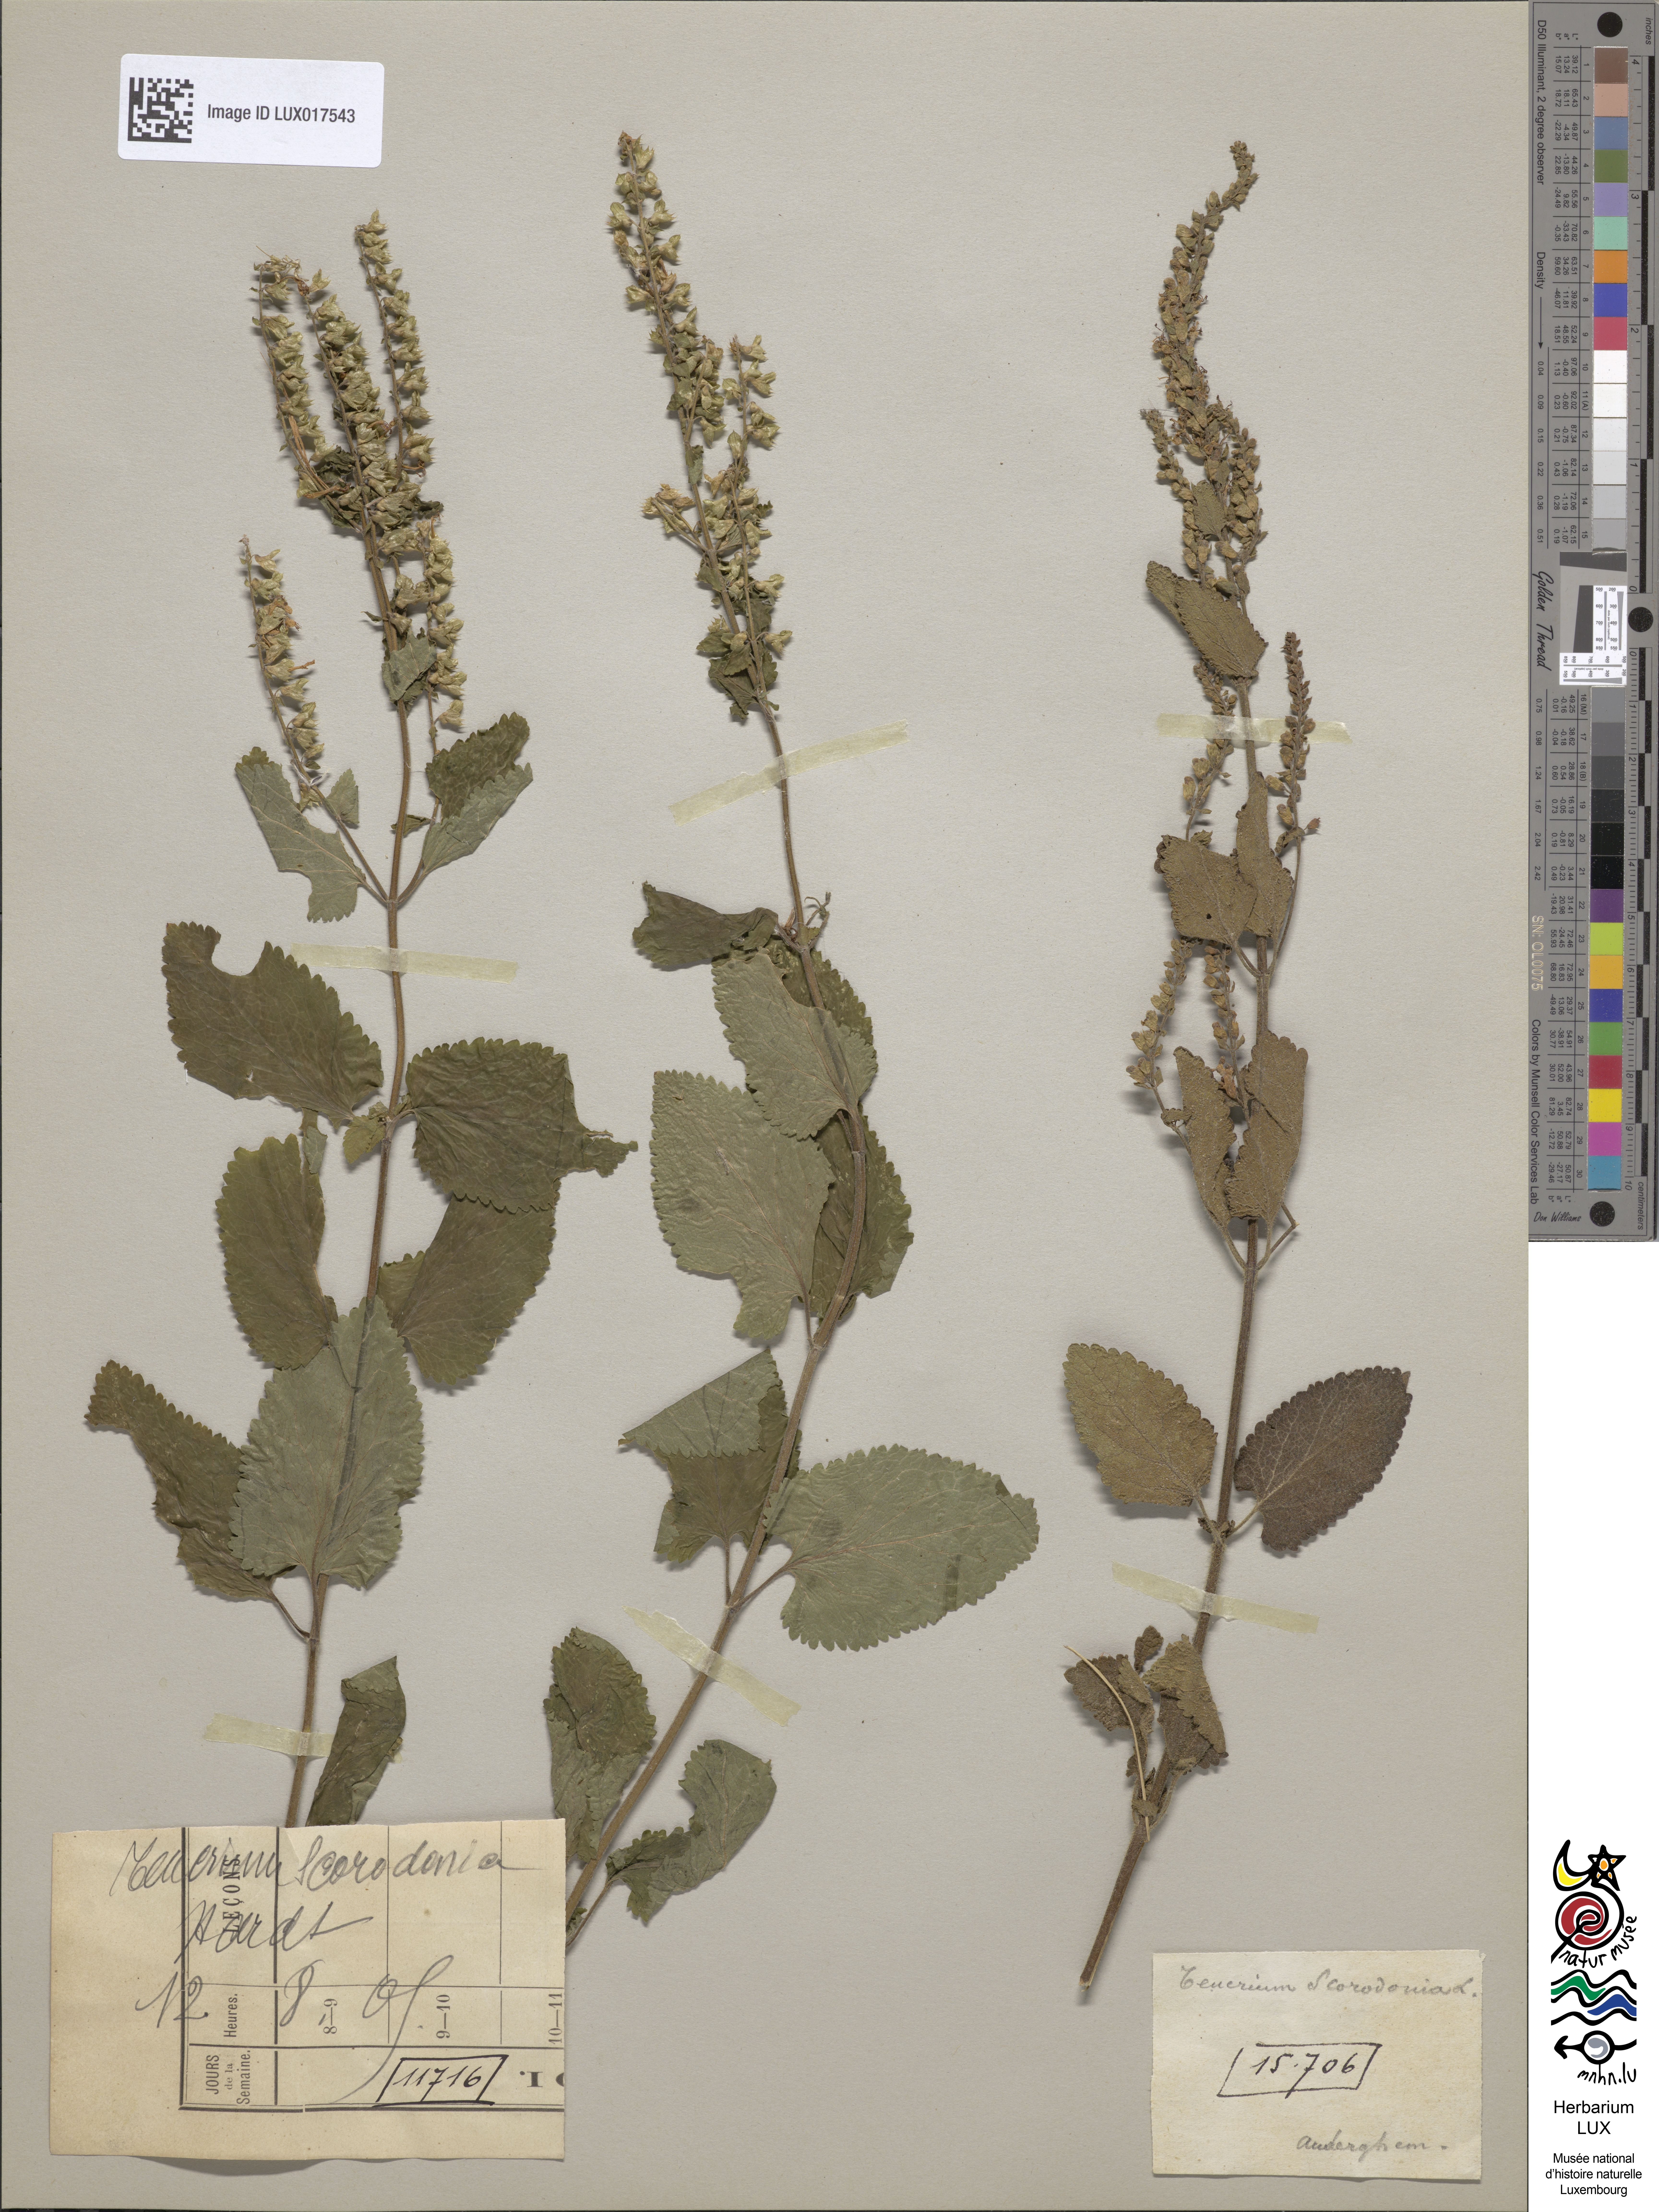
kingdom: Plantae
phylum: Tracheophyta
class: Magnoliopsida
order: Lamiales
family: Lamiaceae
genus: Teucrium
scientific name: Teucrium scorodonia
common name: Woodland germander
